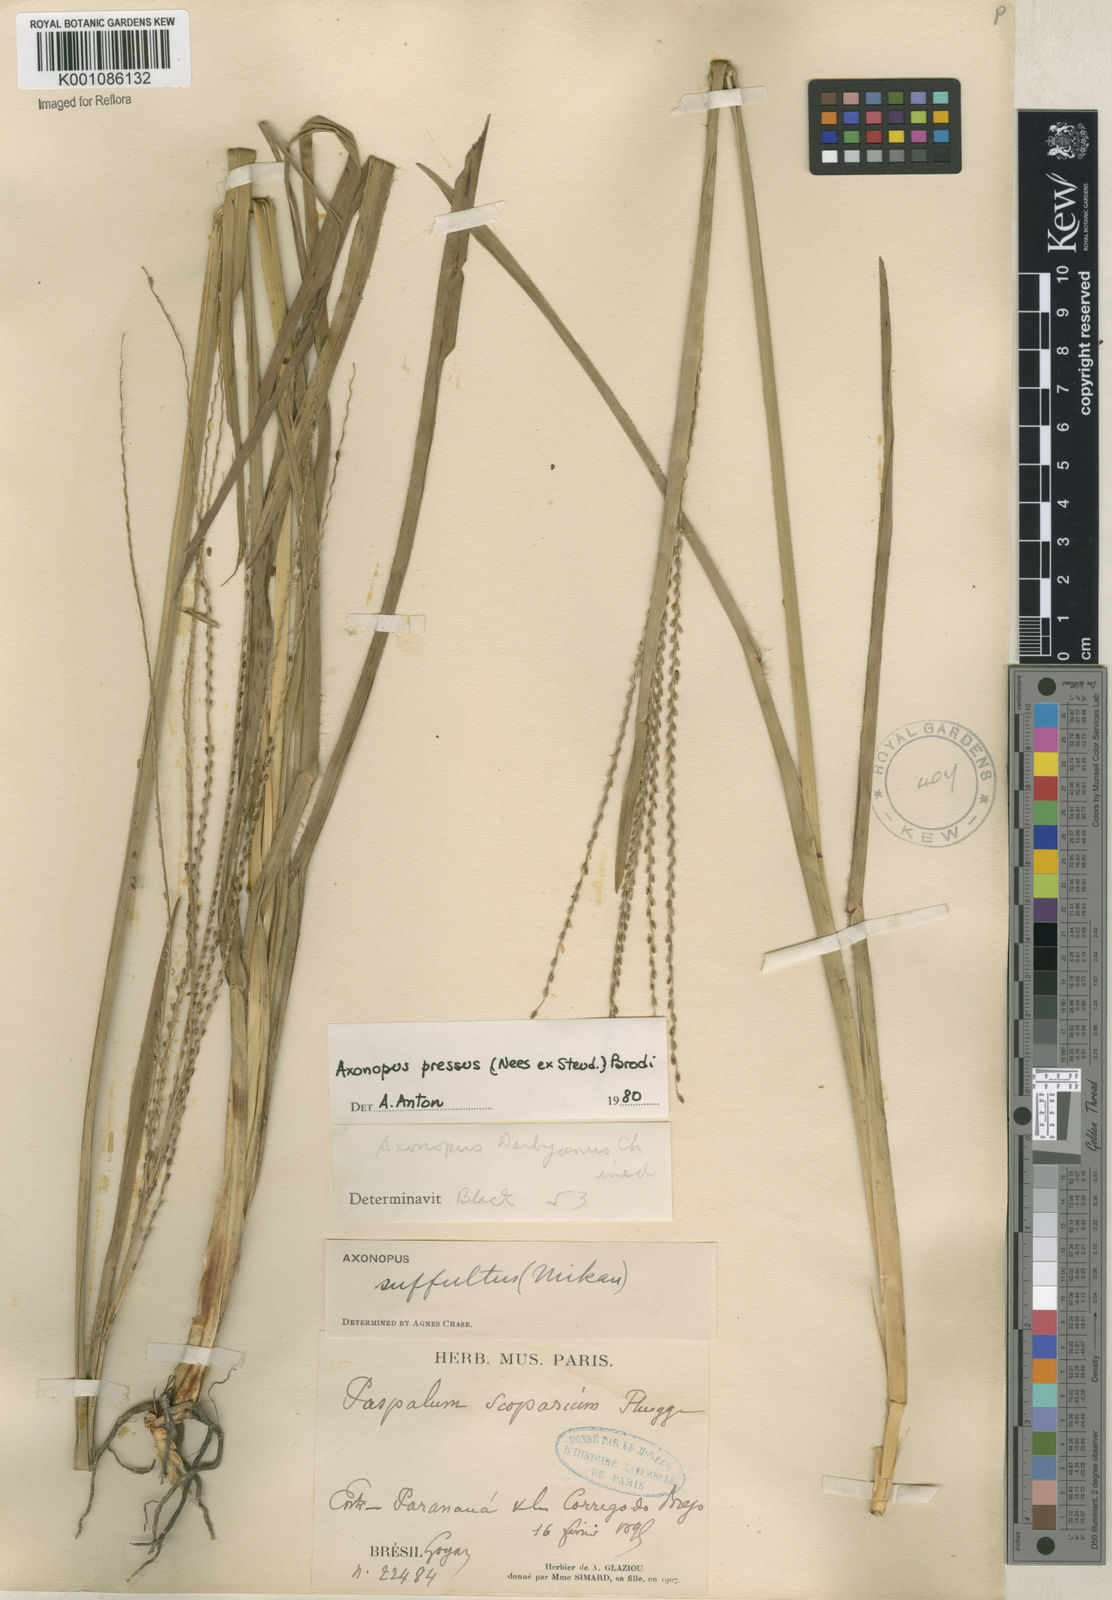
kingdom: Plantae
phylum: Tracheophyta
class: Liliopsida
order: Poales
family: Poaceae
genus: Axonopus
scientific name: Axonopus pressus
